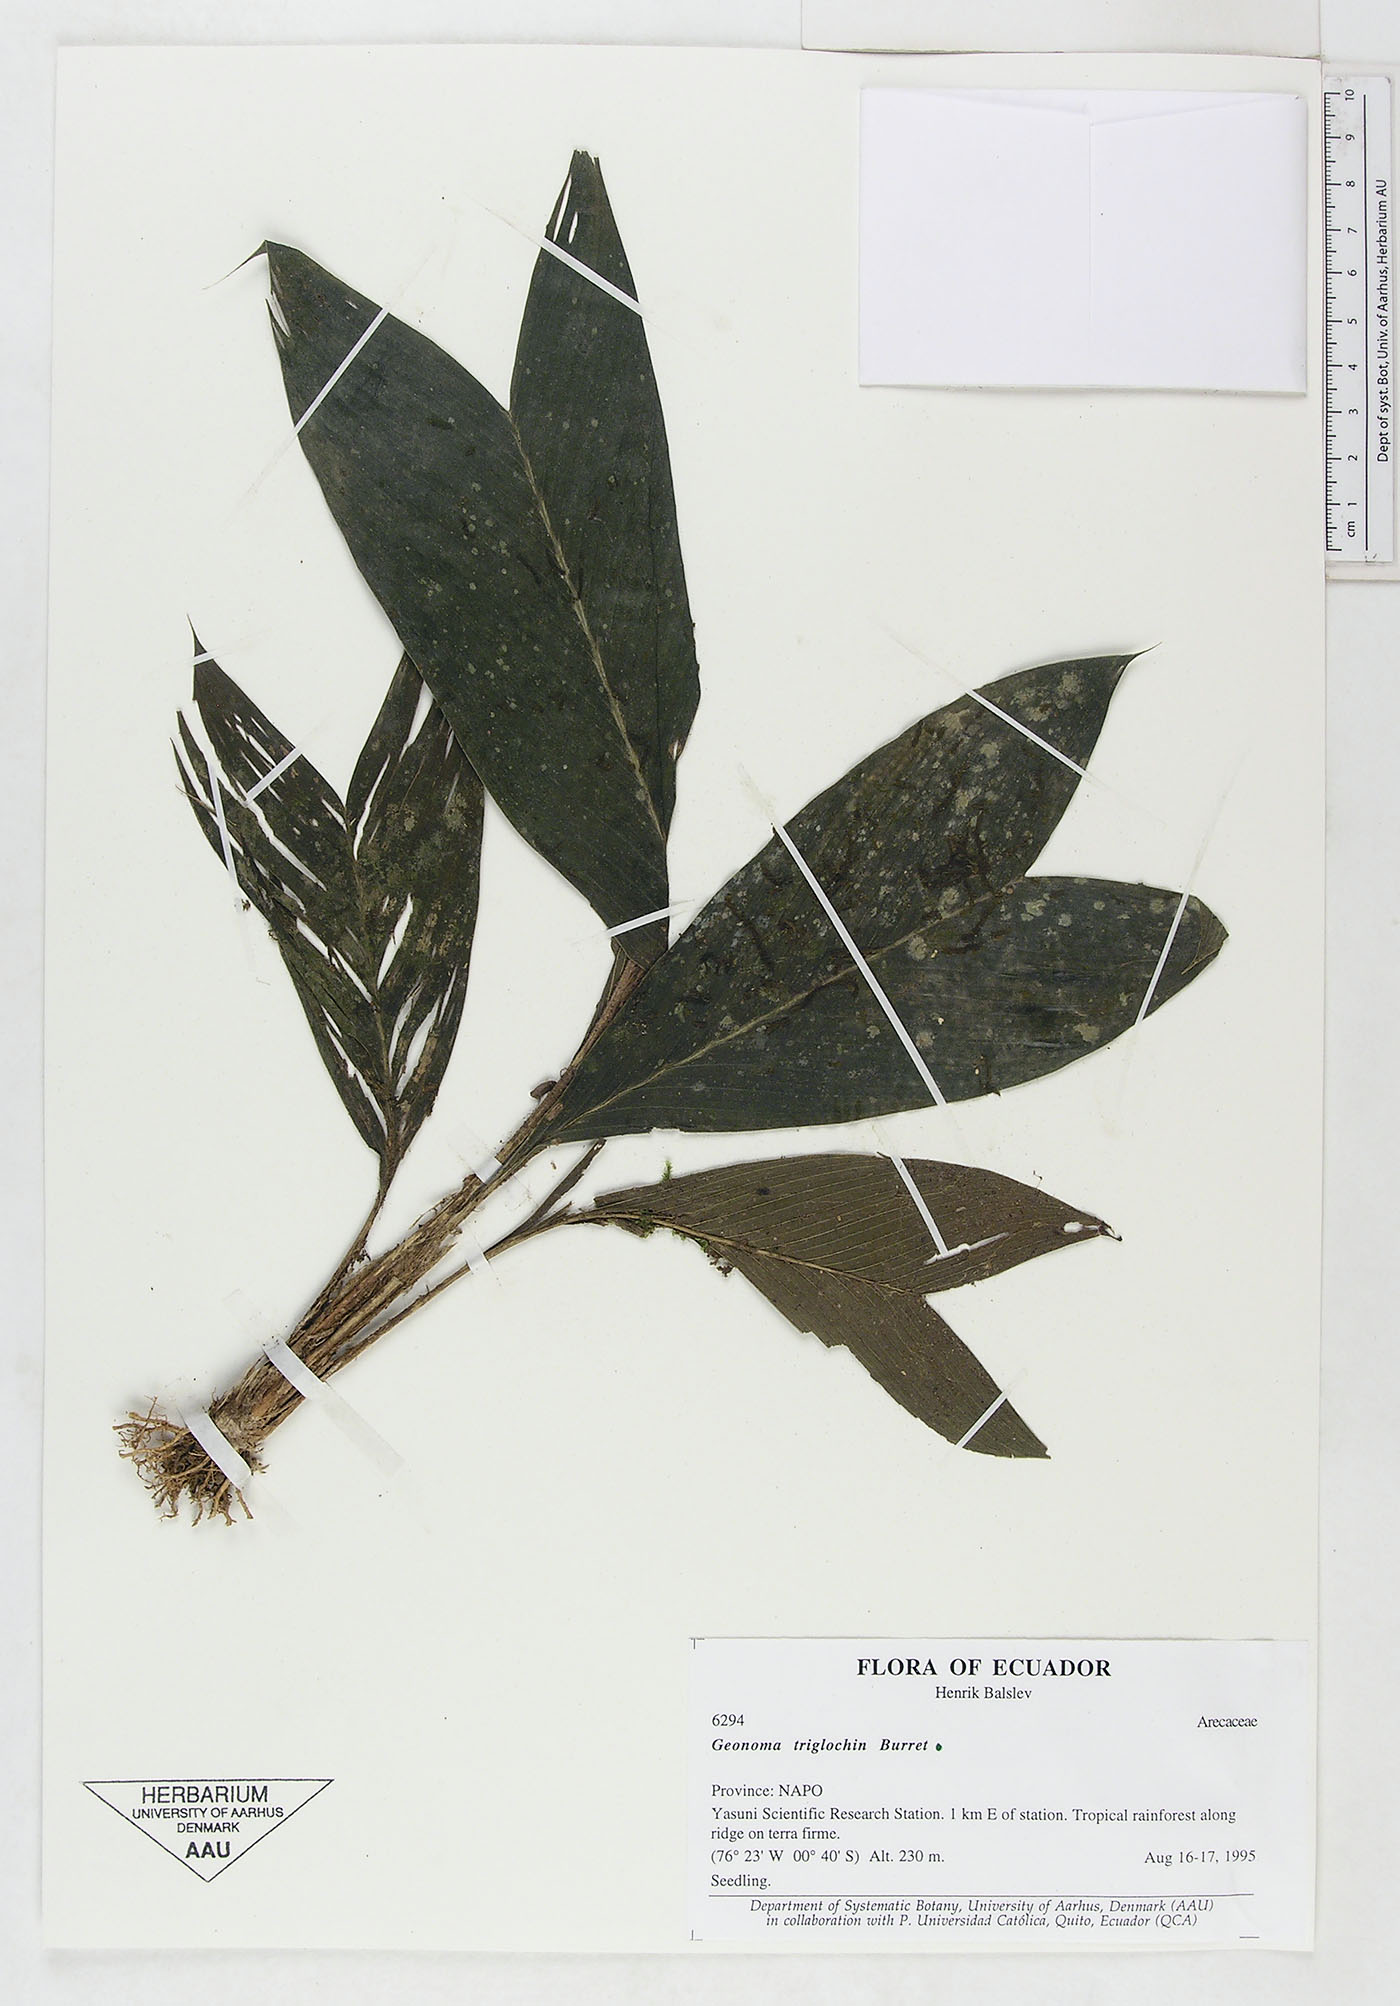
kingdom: Plantae
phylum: Tracheophyta
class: Liliopsida
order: Arecales
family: Arecaceae
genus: Geonoma
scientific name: Geonoma triglochin
